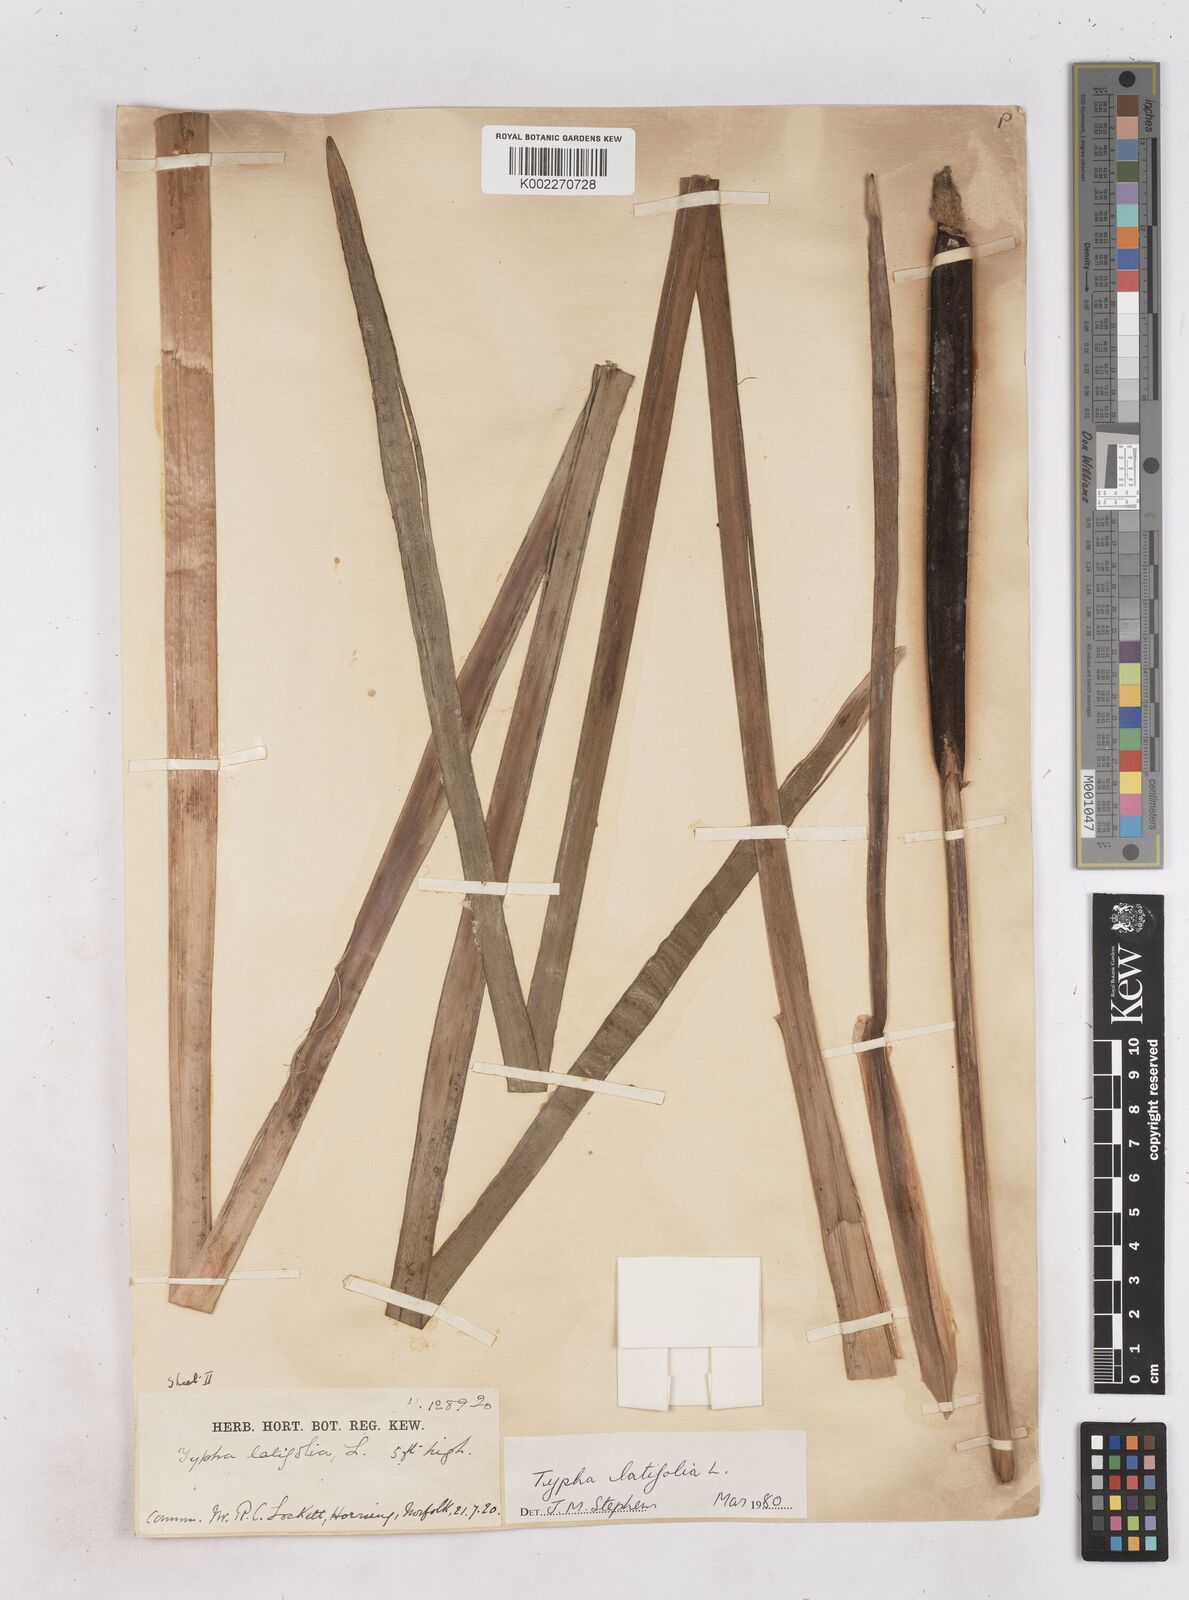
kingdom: Plantae
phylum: Tracheophyta
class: Liliopsida
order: Poales
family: Typhaceae
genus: Typha
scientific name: Typha latifolia
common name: Broadleaf cattail
